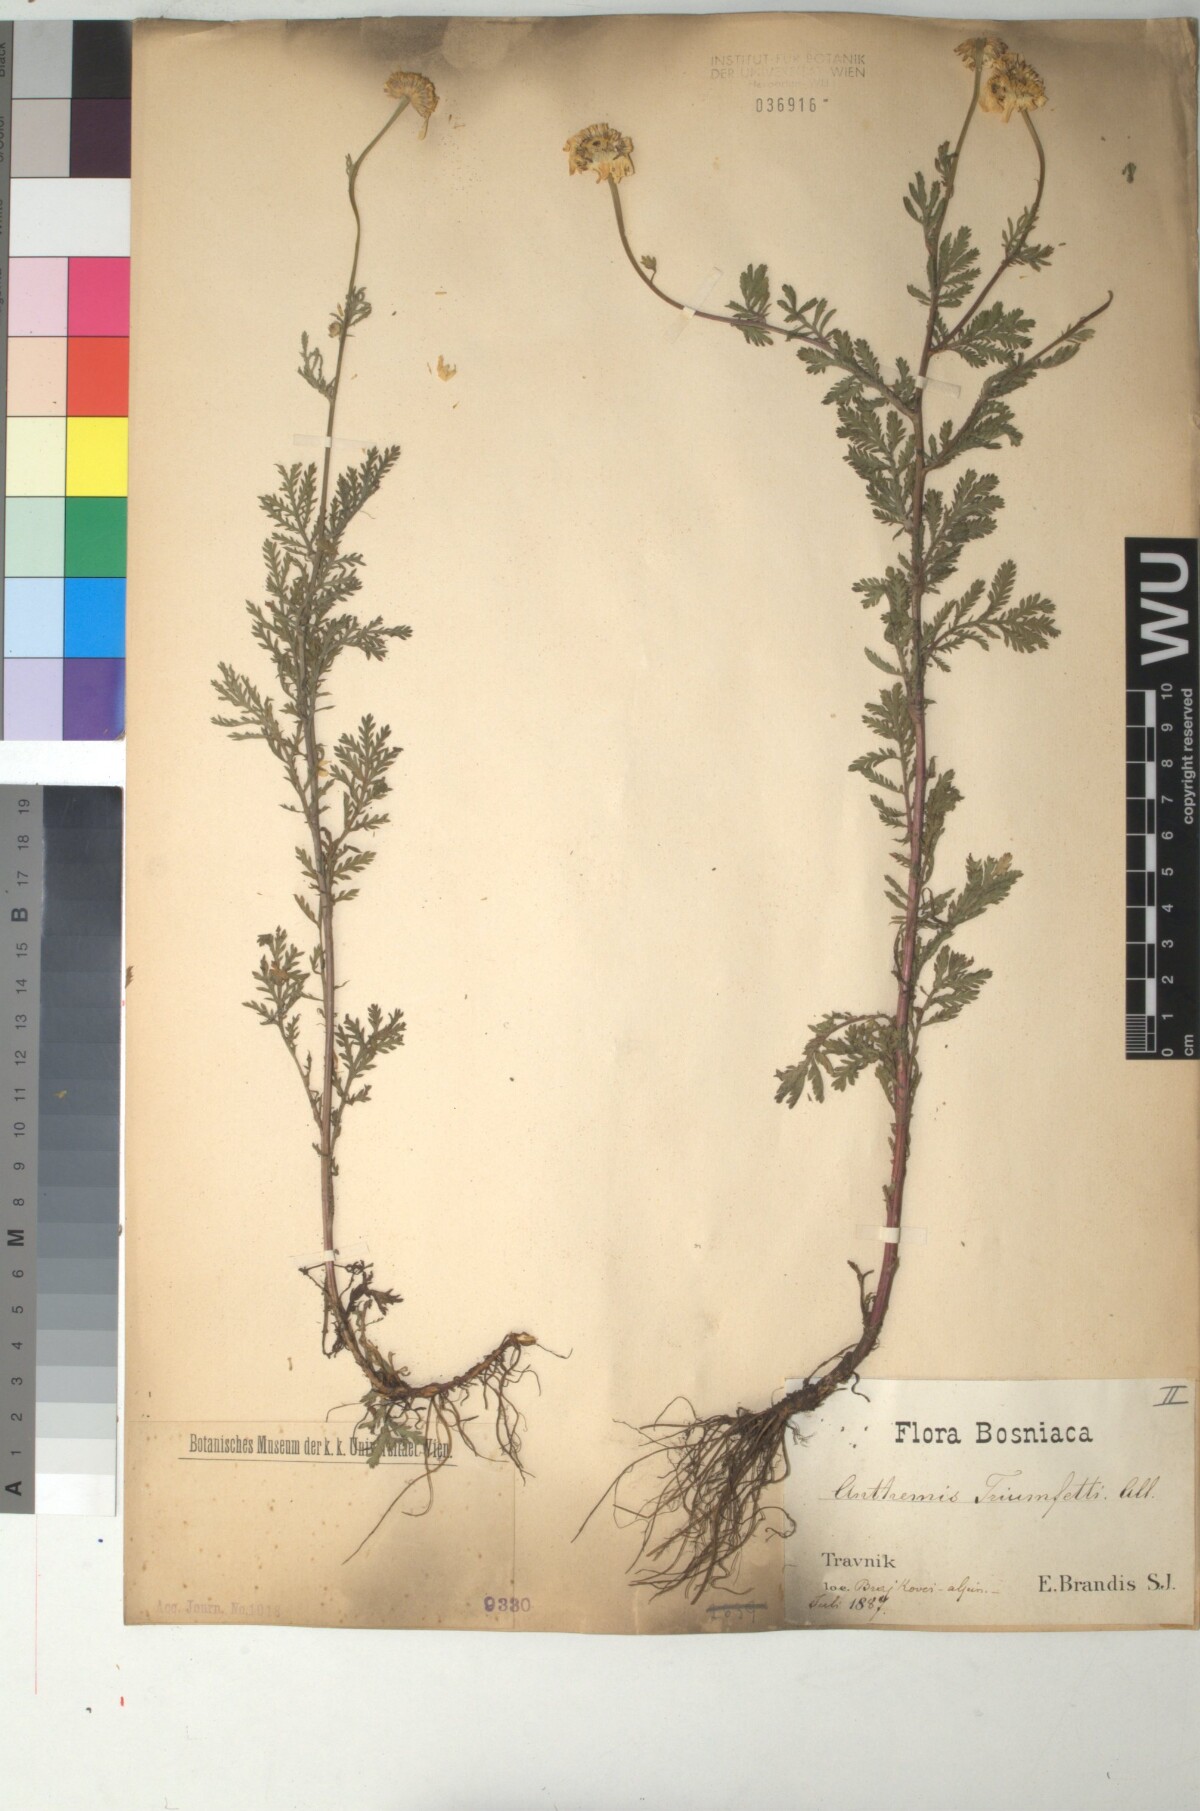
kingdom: Plantae
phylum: Tracheophyta
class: Magnoliopsida
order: Asterales
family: Asteraceae
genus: Cota
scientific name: Cota triumfetti
